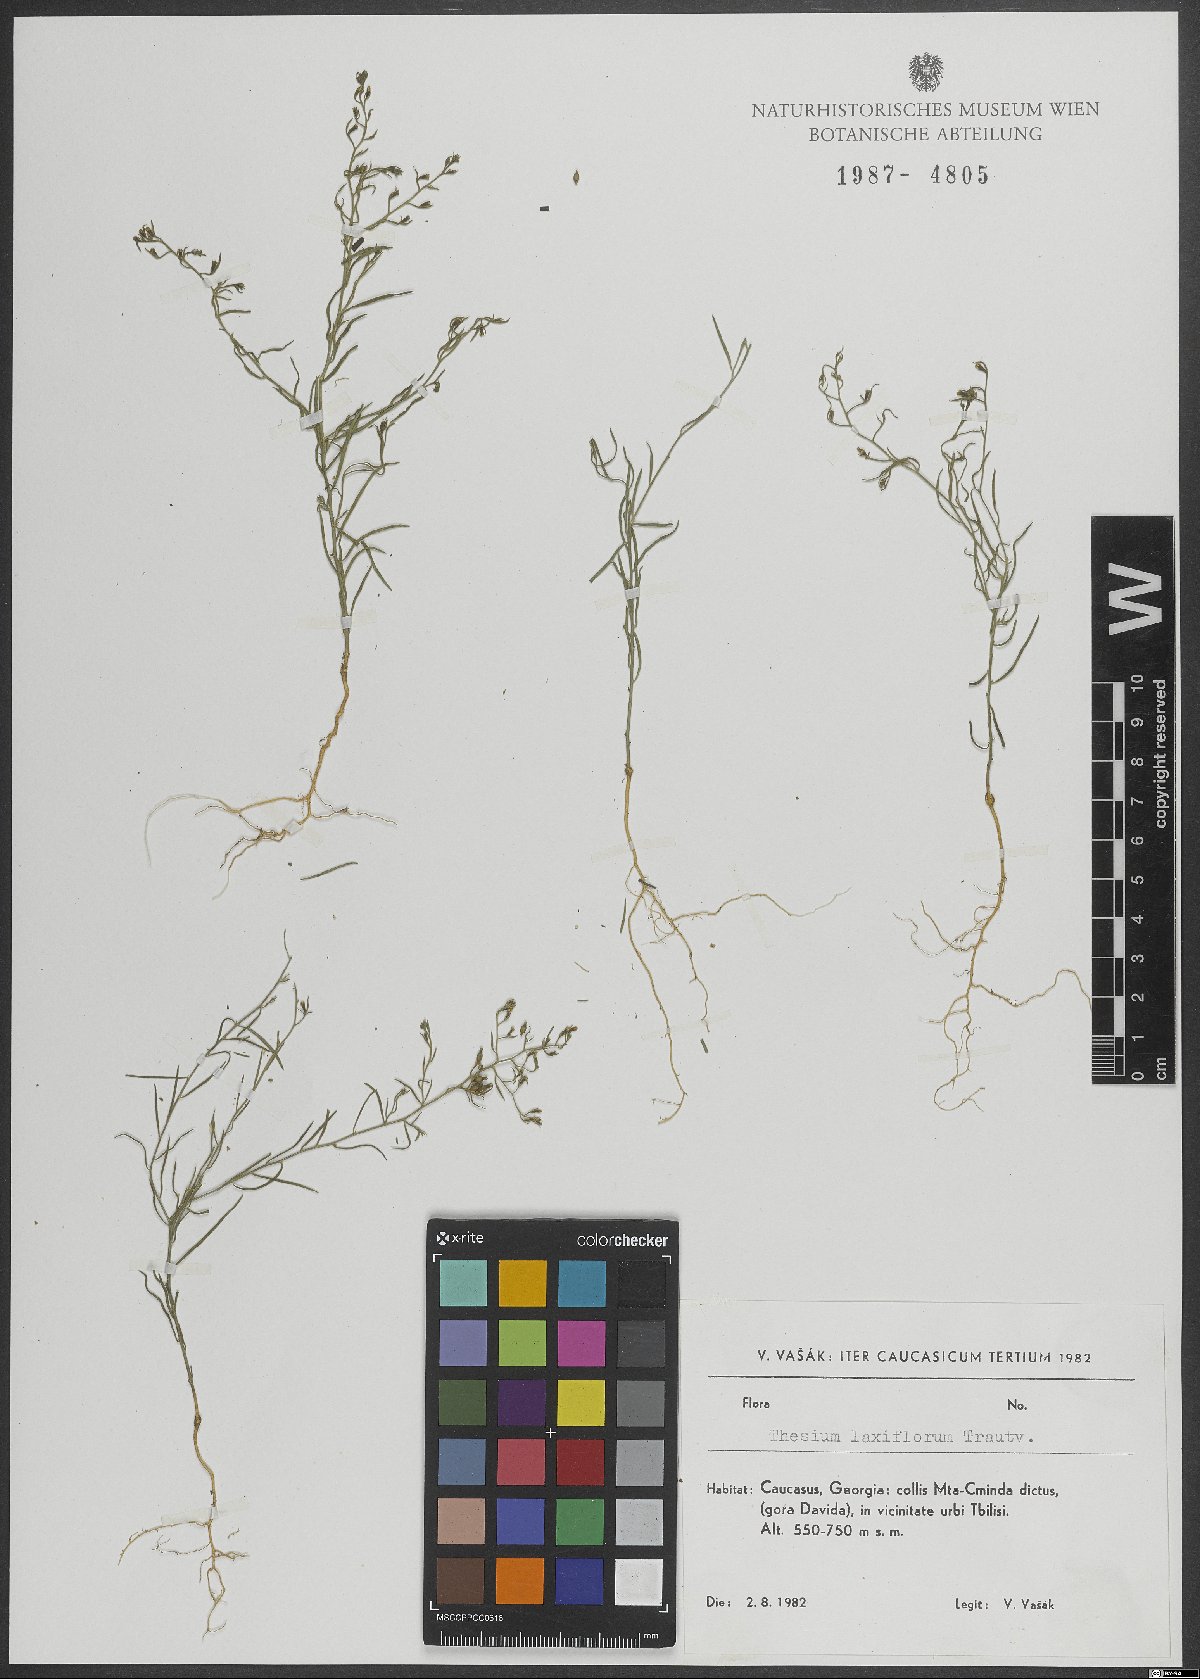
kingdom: Plantae
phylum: Tracheophyta
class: Magnoliopsida
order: Santalales
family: Thesiaceae
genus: Thesium
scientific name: Thesium laxiflorum
